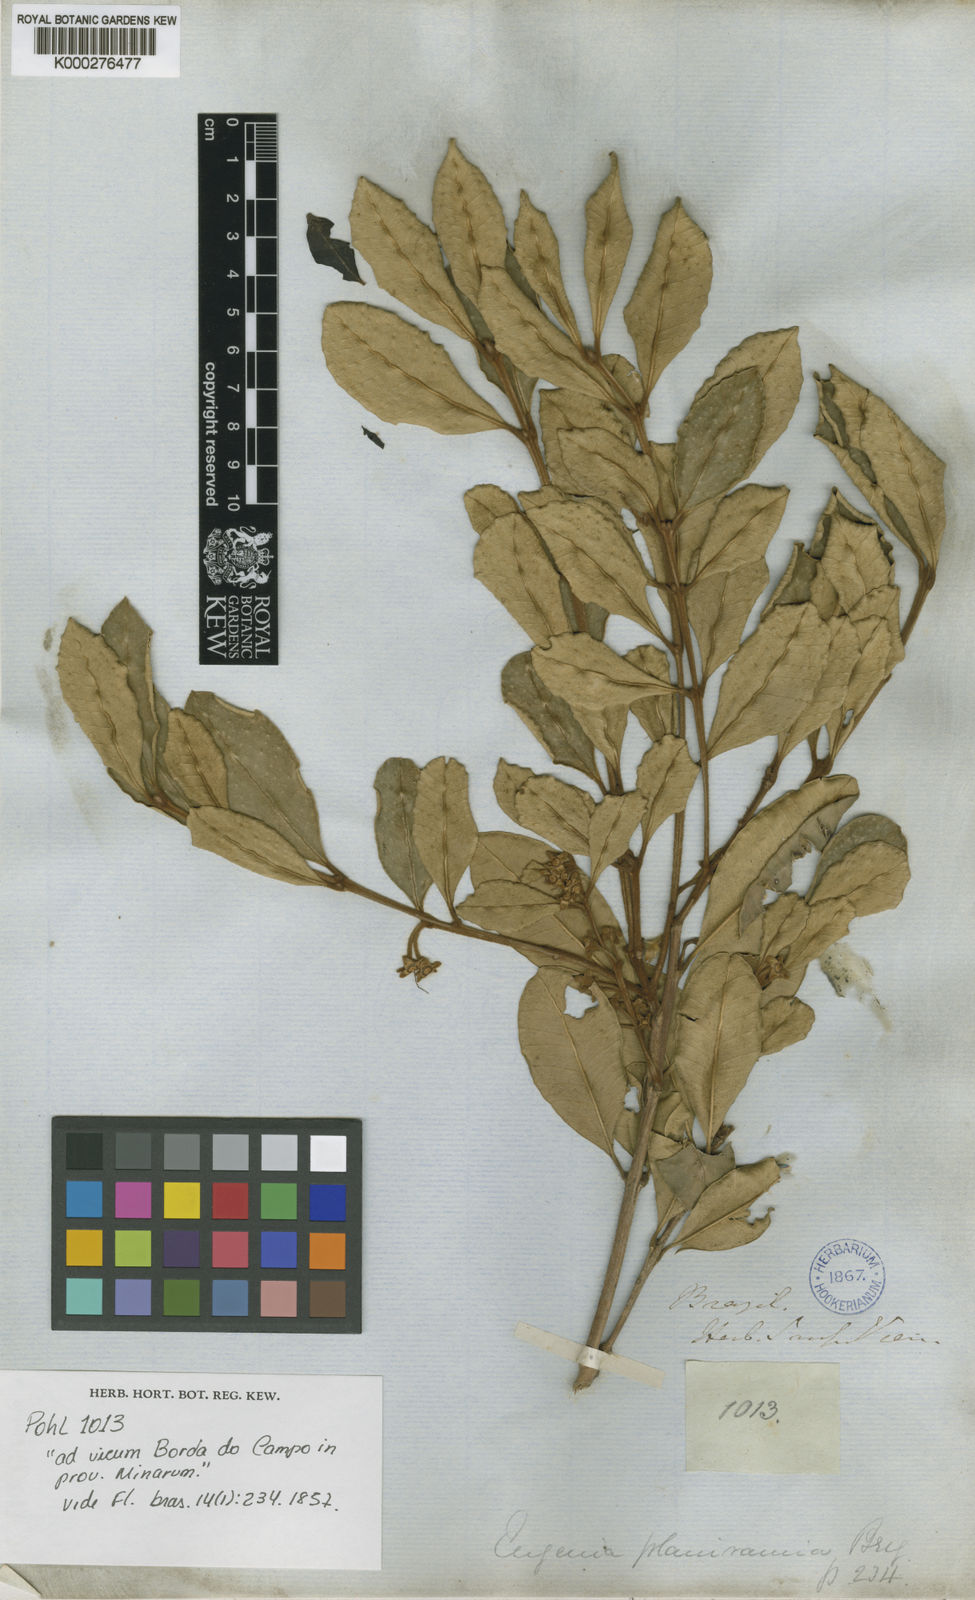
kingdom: Plantae
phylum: Tracheophyta
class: Magnoliopsida
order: Myrtales
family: Myrtaceae
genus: Myrceugenia
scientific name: Myrceugenia rufescens
